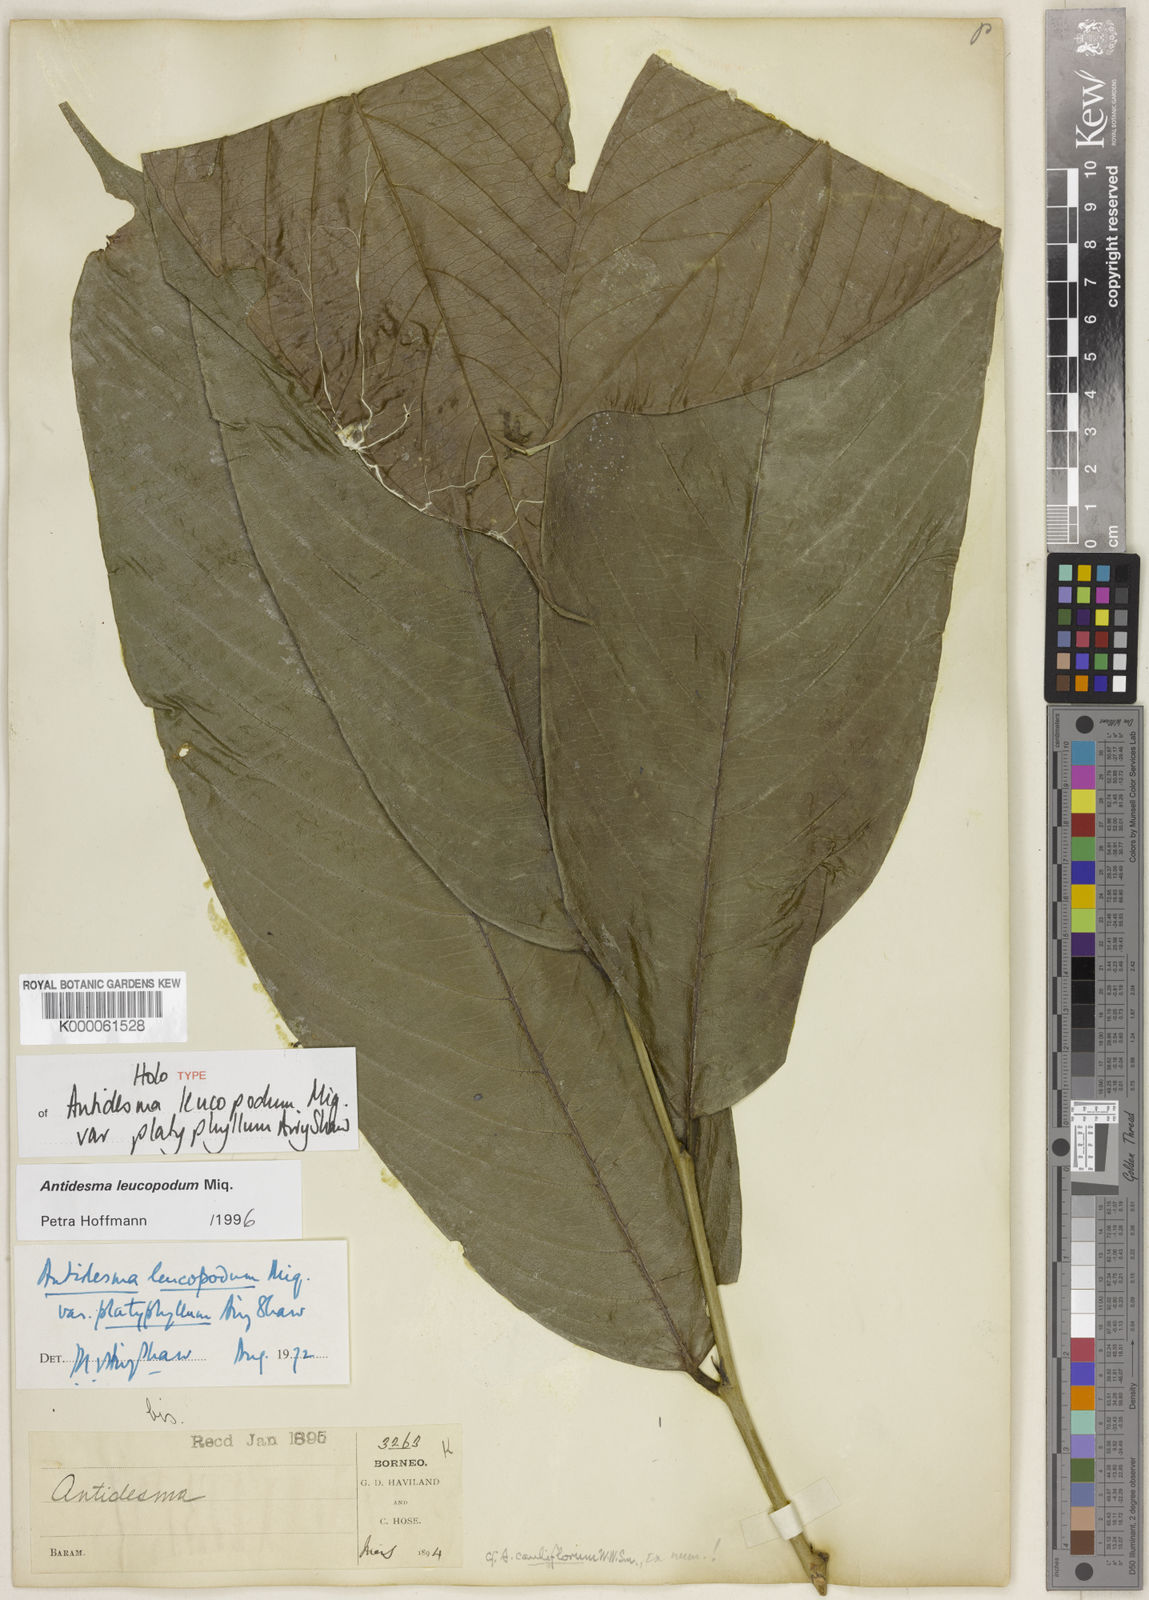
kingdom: Plantae
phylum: Tracheophyta
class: Magnoliopsida
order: Malpighiales
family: Phyllanthaceae
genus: Antidesma
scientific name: Antidesma leucopodum
